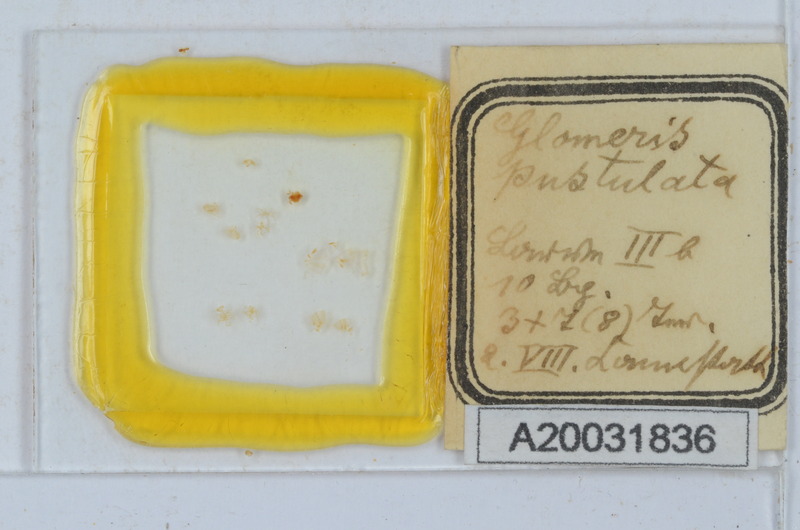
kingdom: Animalia
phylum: Arthropoda
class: Diplopoda
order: Glomerida
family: Glomeridae
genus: Glomeris
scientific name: Glomeris pustulata
